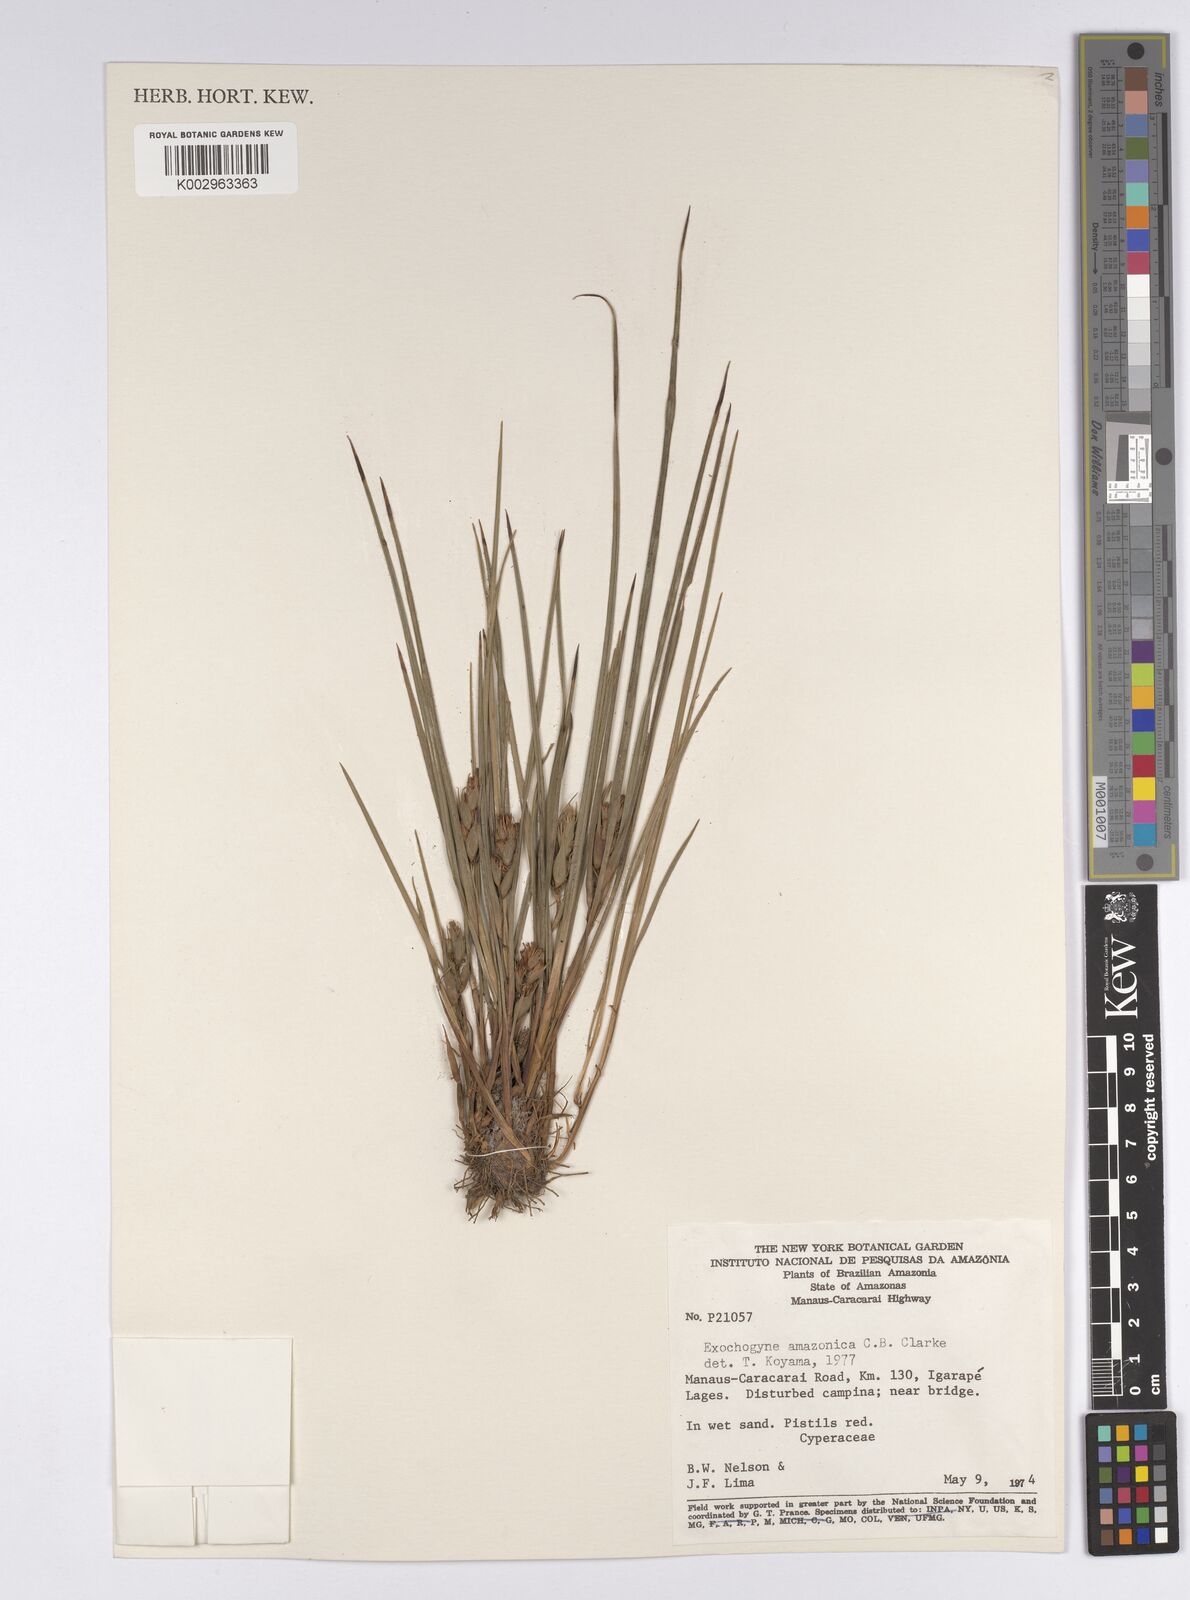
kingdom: Plantae
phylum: Tracheophyta
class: Liliopsida
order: Poales
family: Cyperaceae
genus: Exochogyne
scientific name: Exochogyne amazonica
